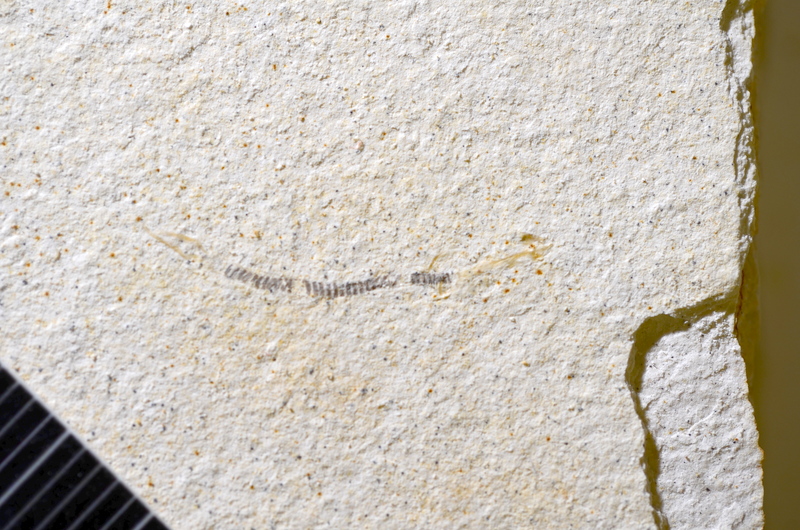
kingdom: Animalia
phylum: Chordata
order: Salmoniformes
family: Orthogonikleithridae
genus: Orthogonikleithrus
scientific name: Orthogonikleithrus hoelli
